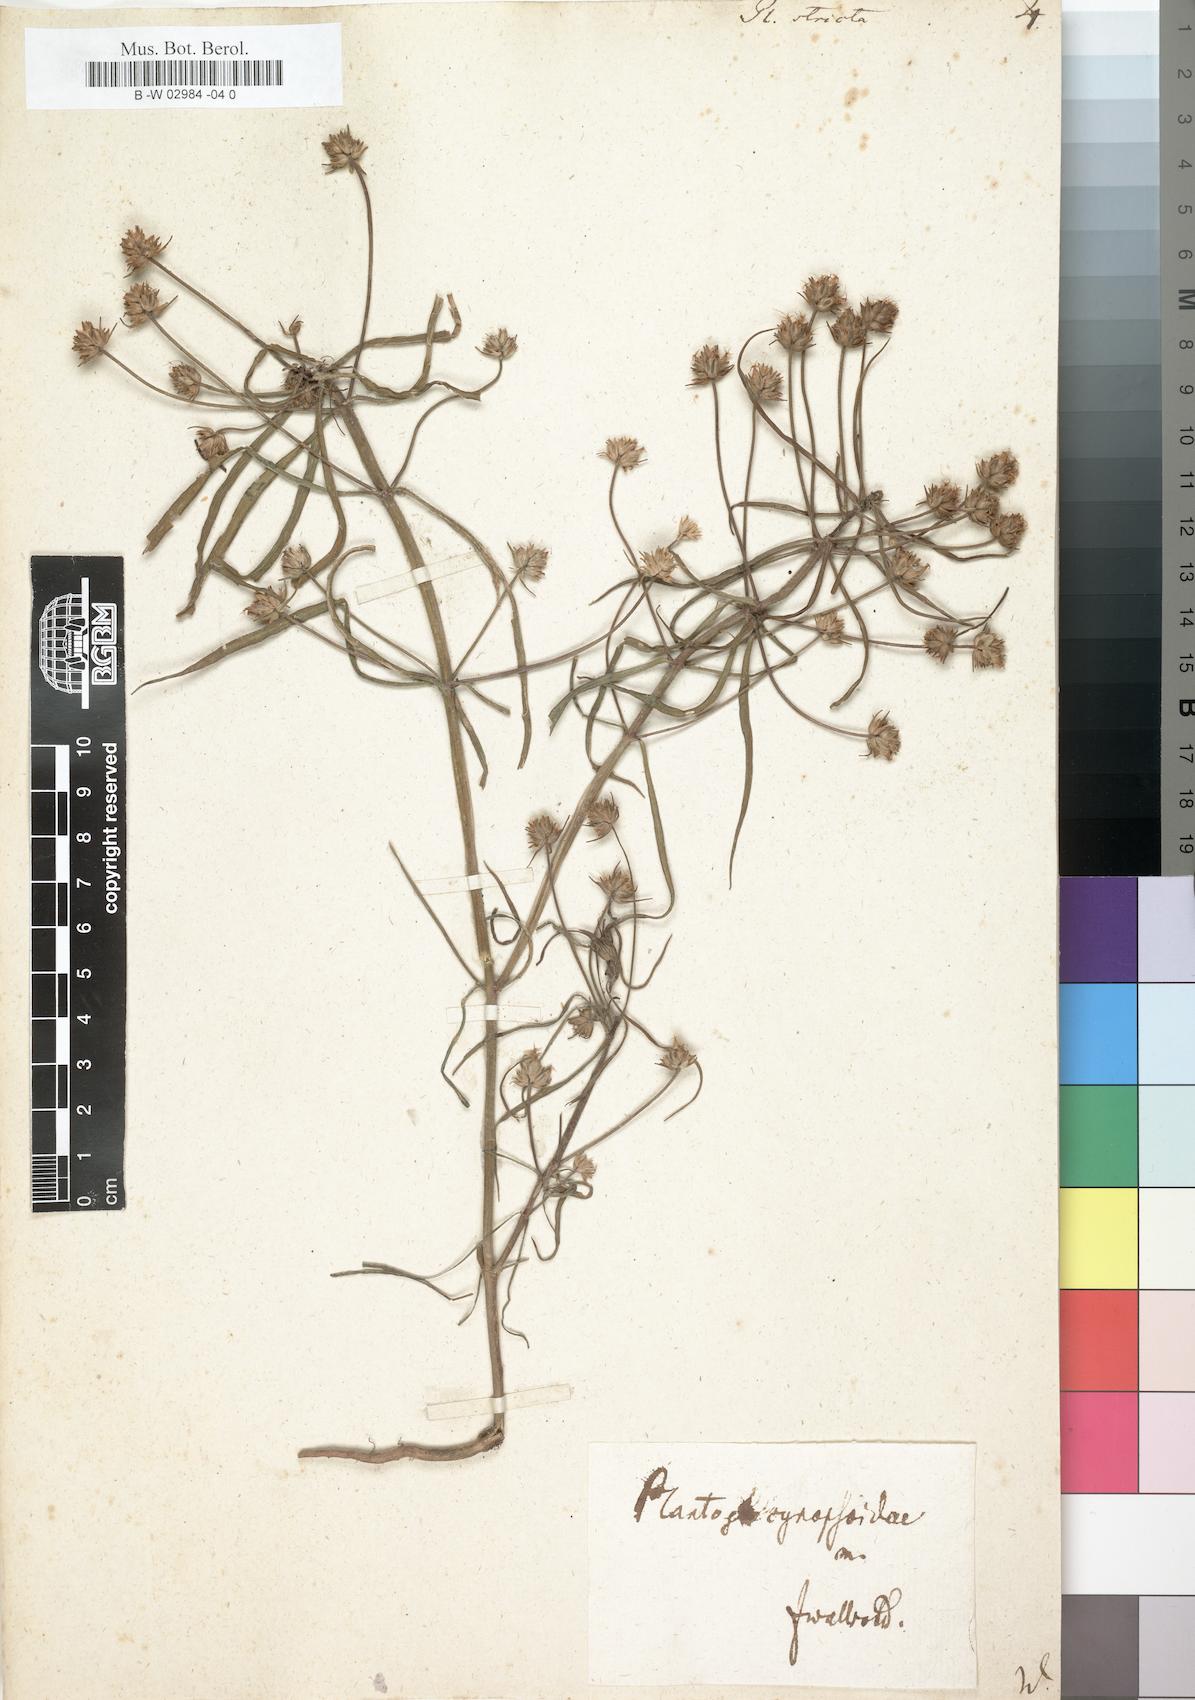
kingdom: Plantae
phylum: Tracheophyta
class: Magnoliopsida
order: Lamiales
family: Plantaginaceae
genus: Plantago
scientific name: Plantago
